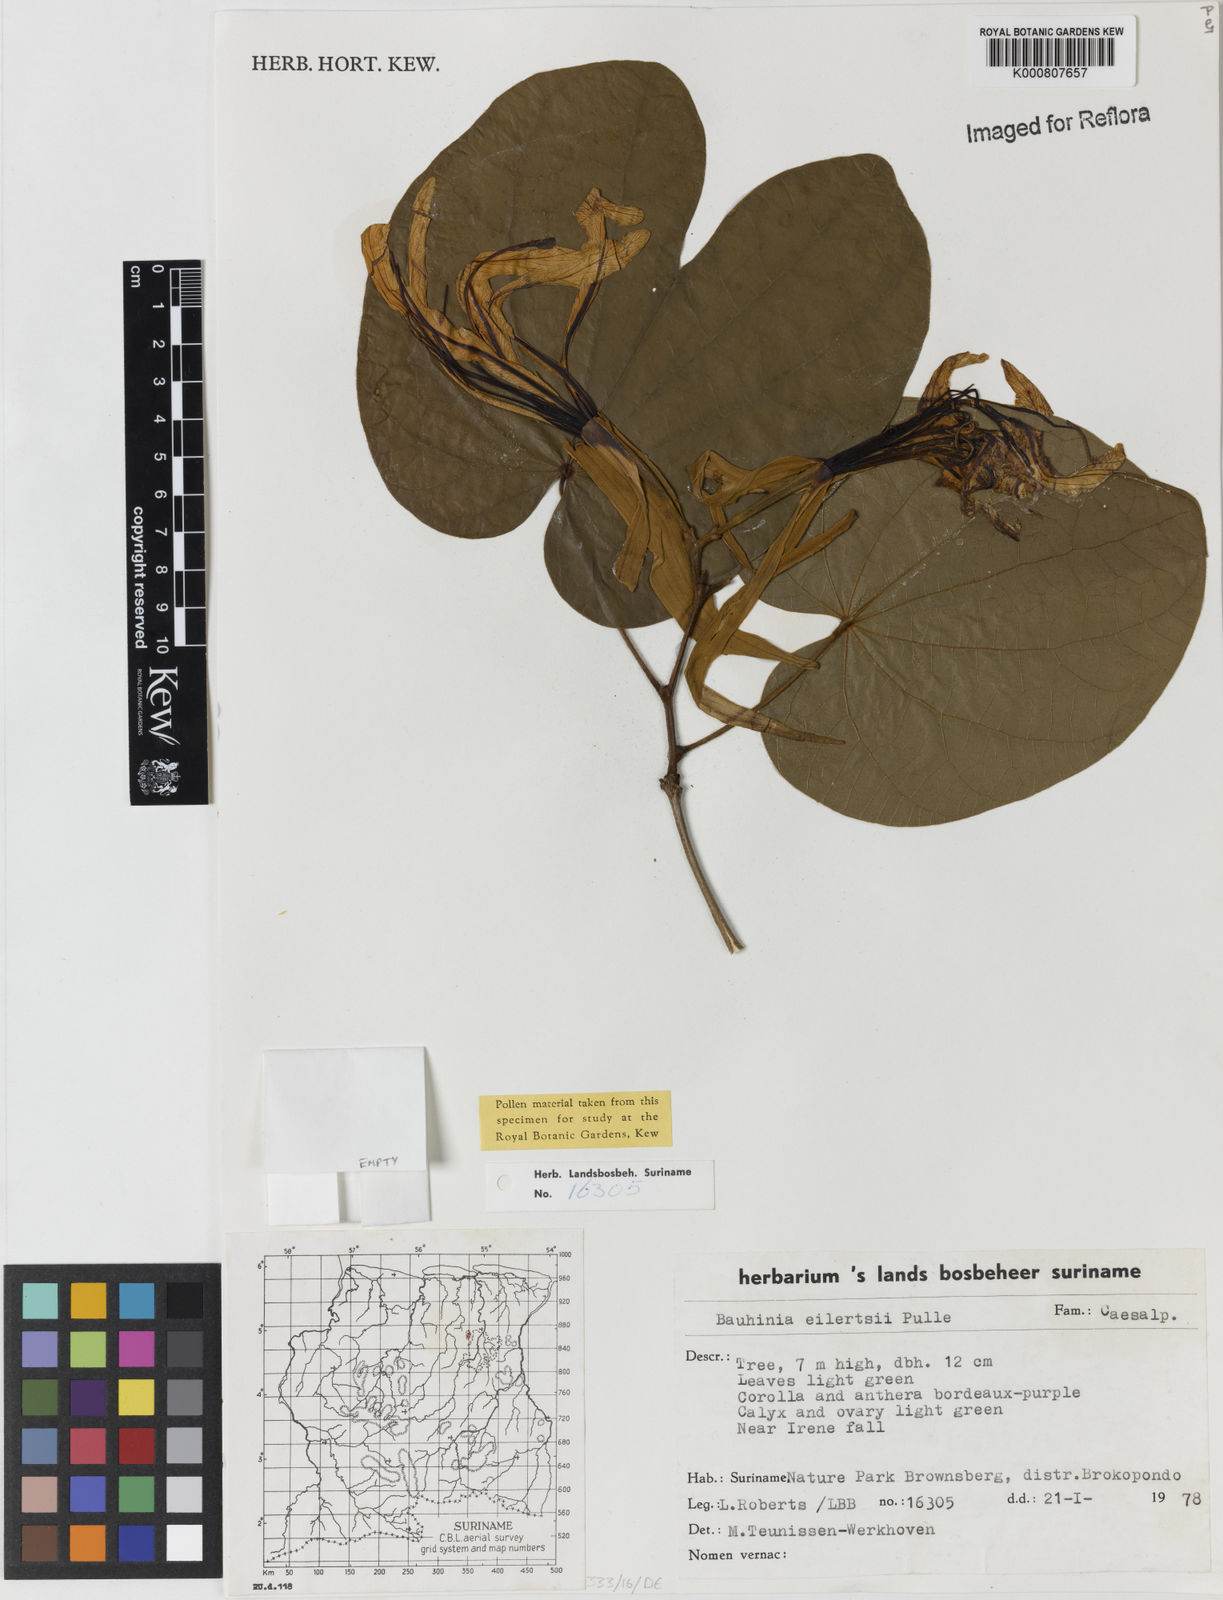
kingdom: Plantae
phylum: Tracheophyta
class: Magnoliopsida
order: Fabales
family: Fabaceae
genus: Bauhinia
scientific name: Bauhinia eilertsii
